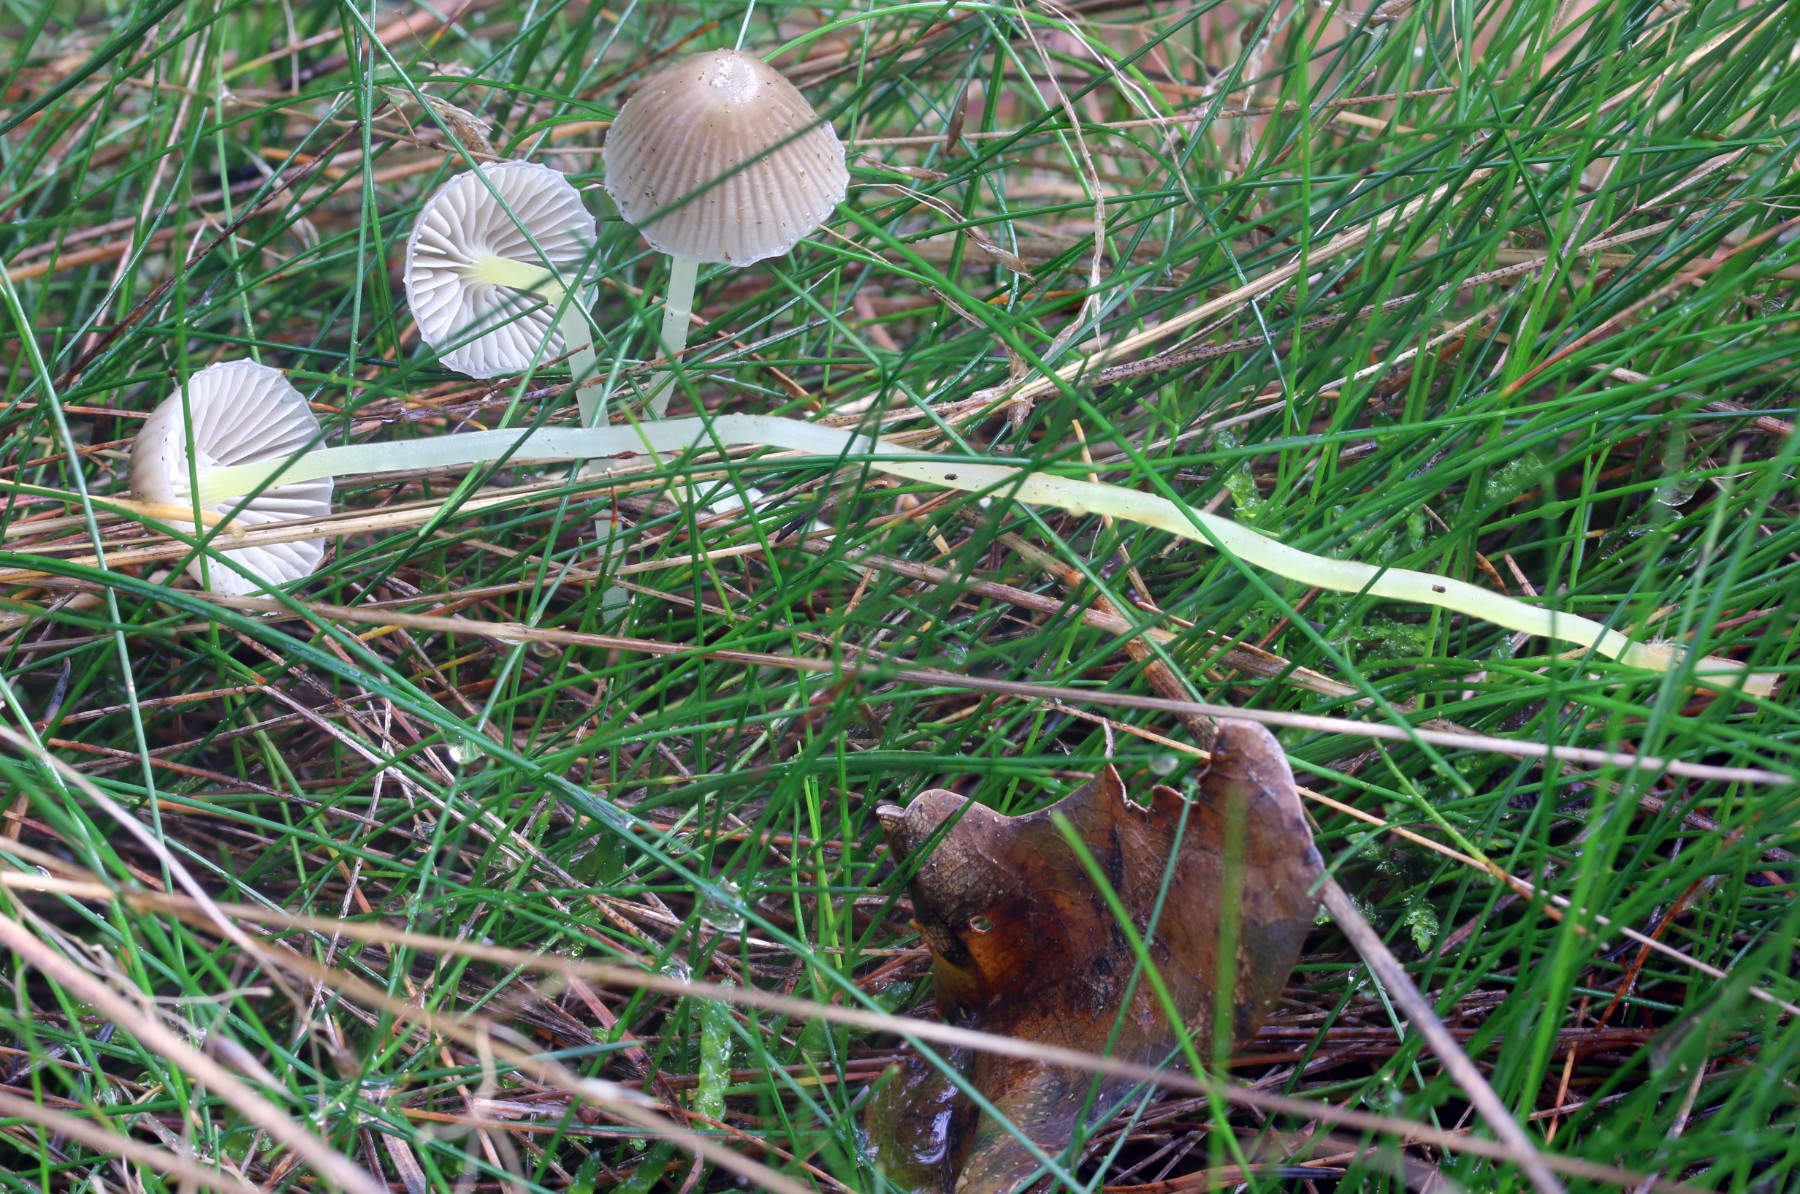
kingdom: Fungi
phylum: Basidiomycota
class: Agaricomycetes
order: Agaricales
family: Mycenaceae
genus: Mycena
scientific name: Mycena epipterygia
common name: gulstokket huesvamp
